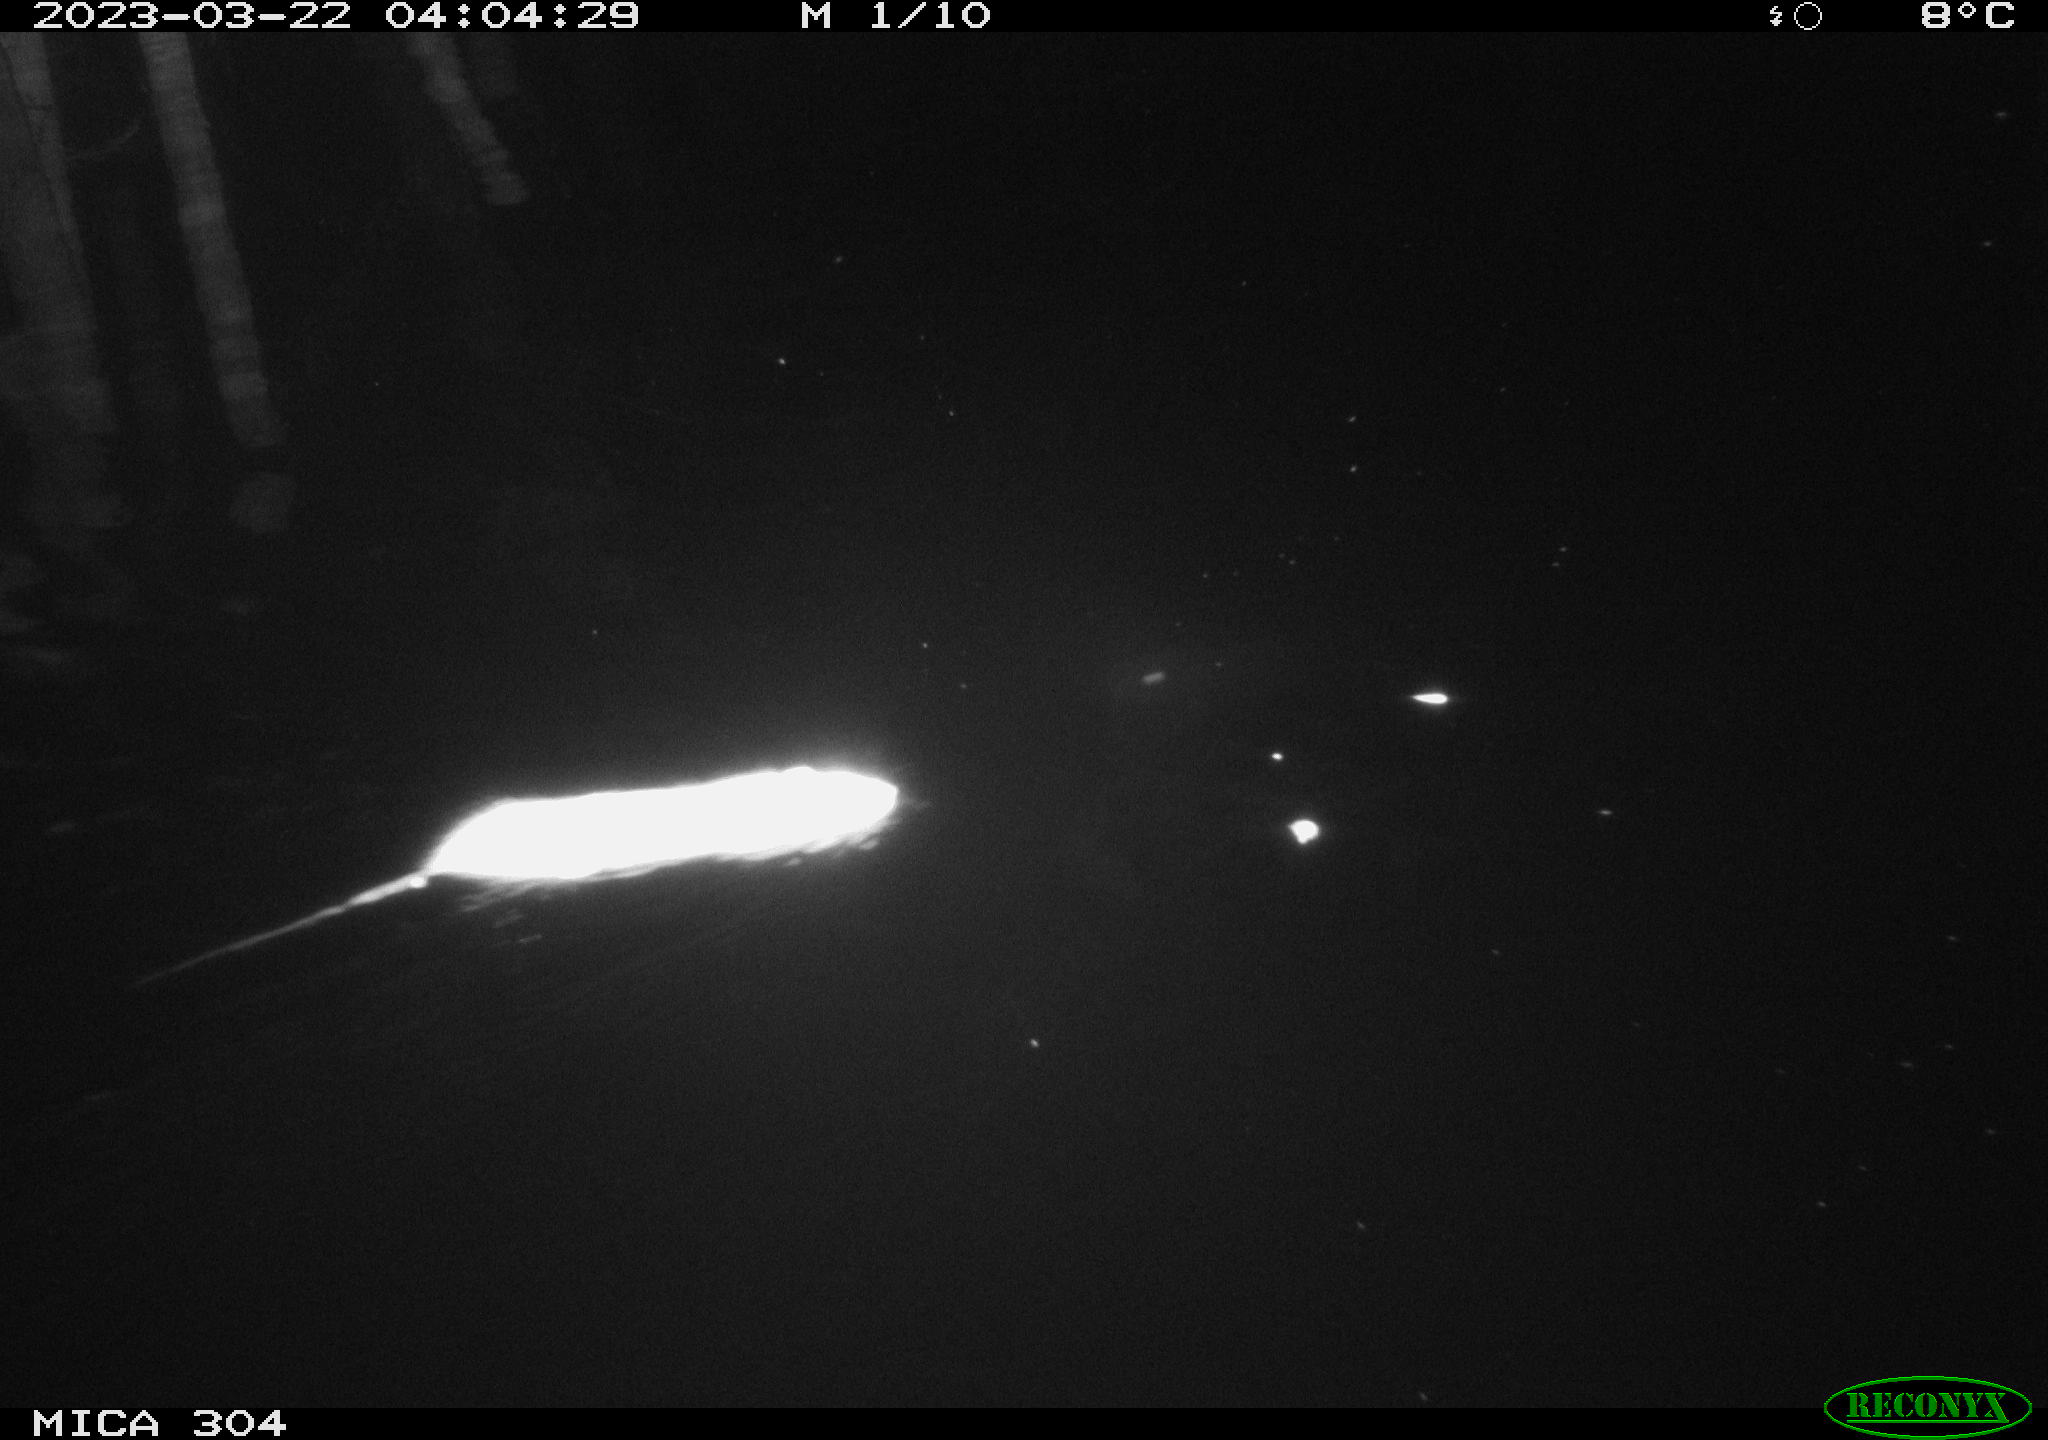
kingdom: Animalia
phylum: Chordata
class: Mammalia
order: Rodentia
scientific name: Rodentia
